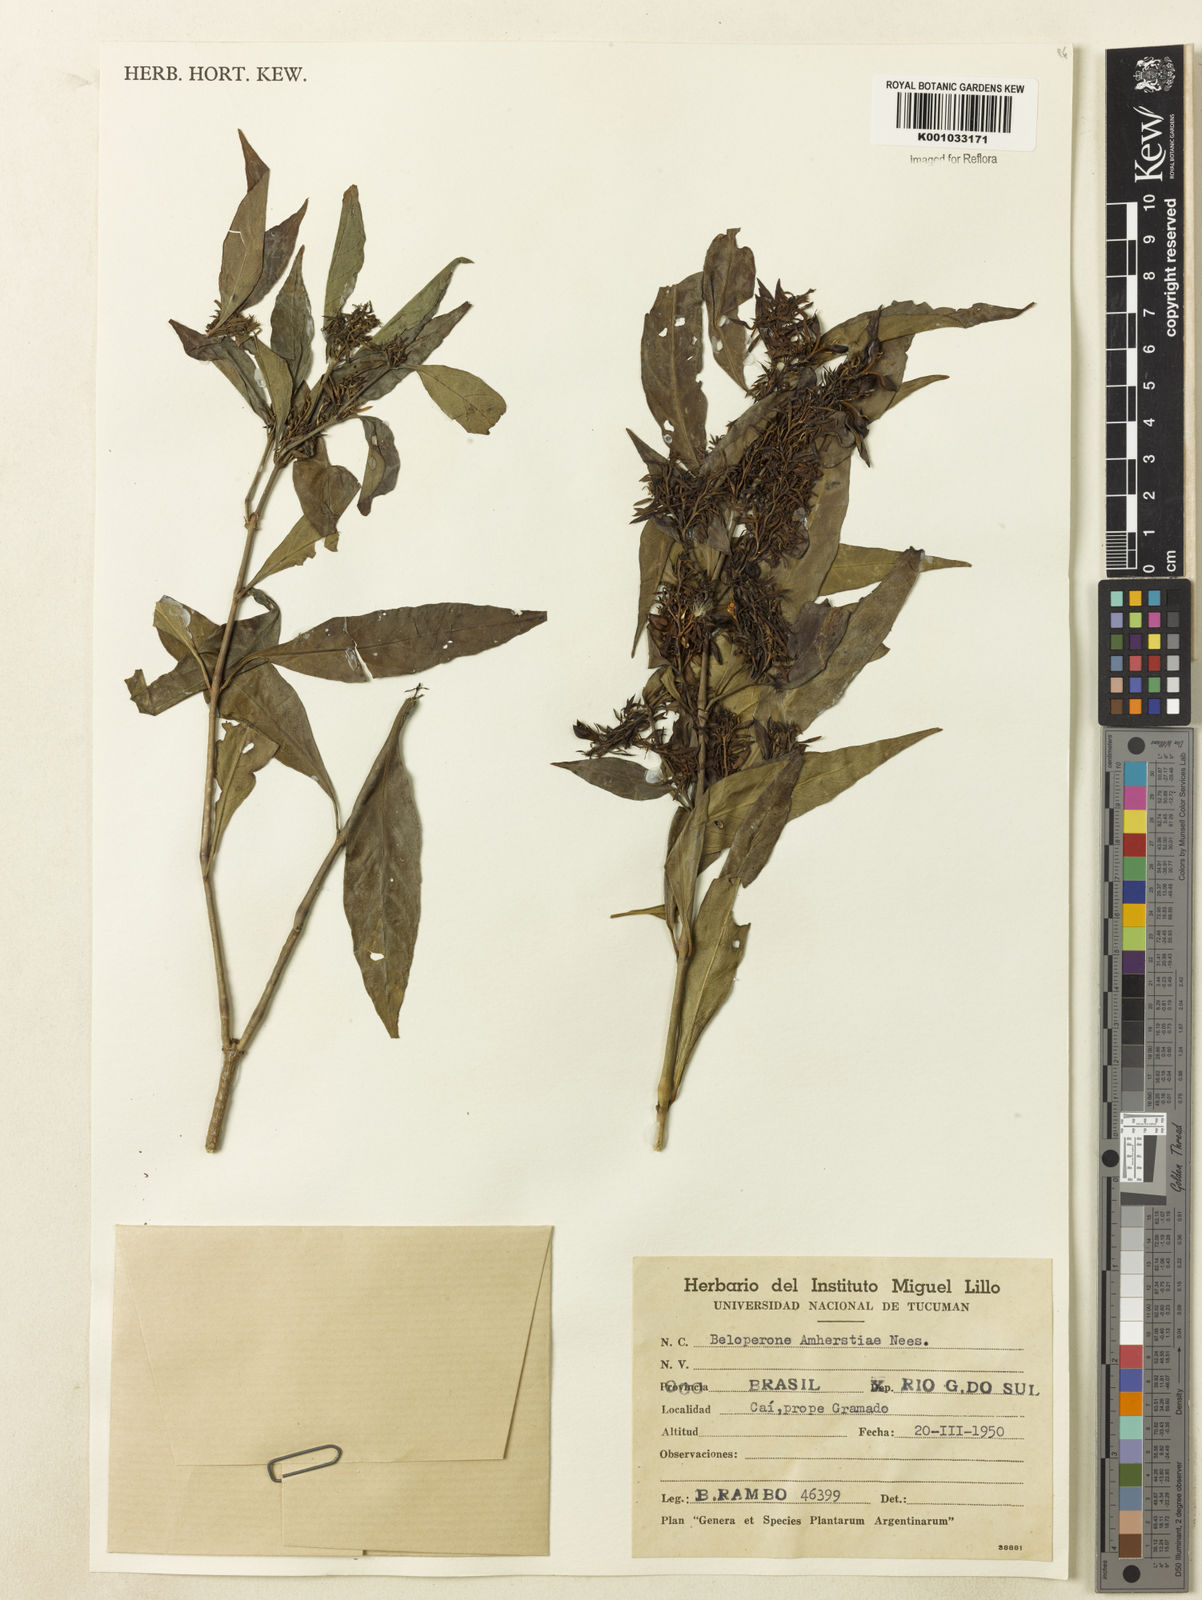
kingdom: Plantae
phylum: Tracheophyta
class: Magnoliopsida
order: Lamiales
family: Acanthaceae
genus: Justicia
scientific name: Justicia brasiliana
